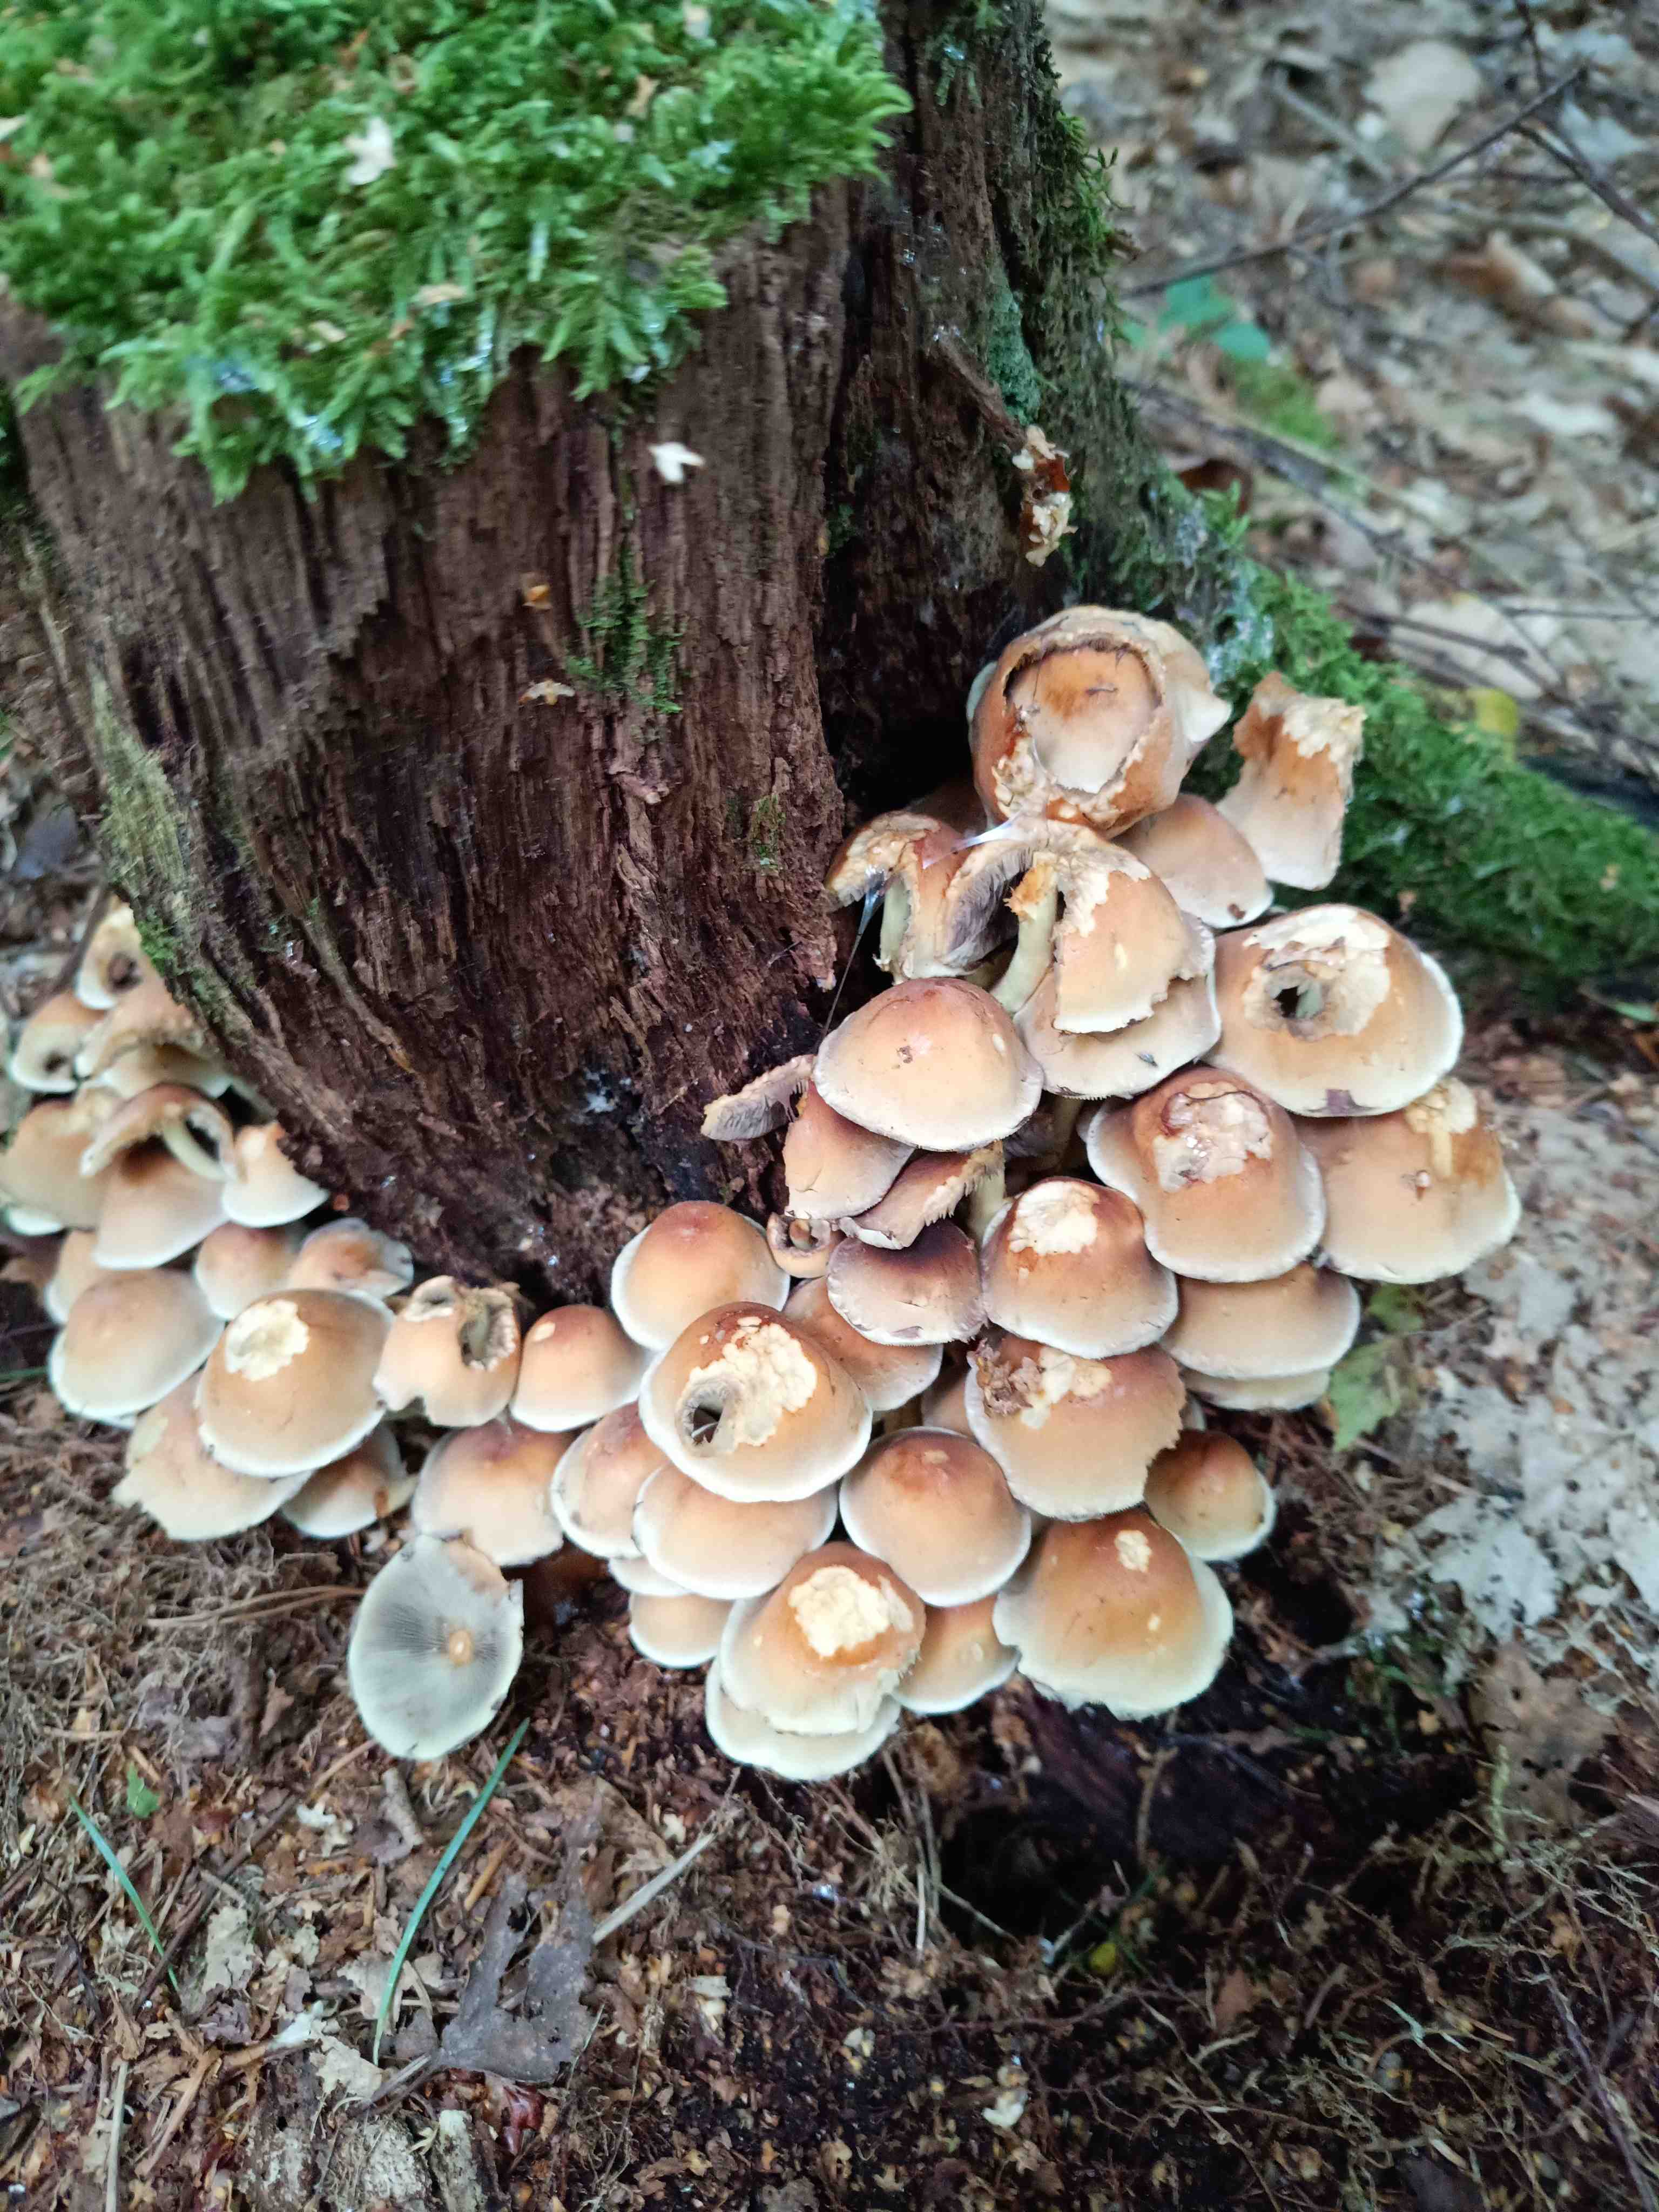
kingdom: Fungi
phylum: Basidiomycota
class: Agaricomycetes
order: Agaricales
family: Strophariaceae
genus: Hypholoma
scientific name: Hypholoma fasciculare
